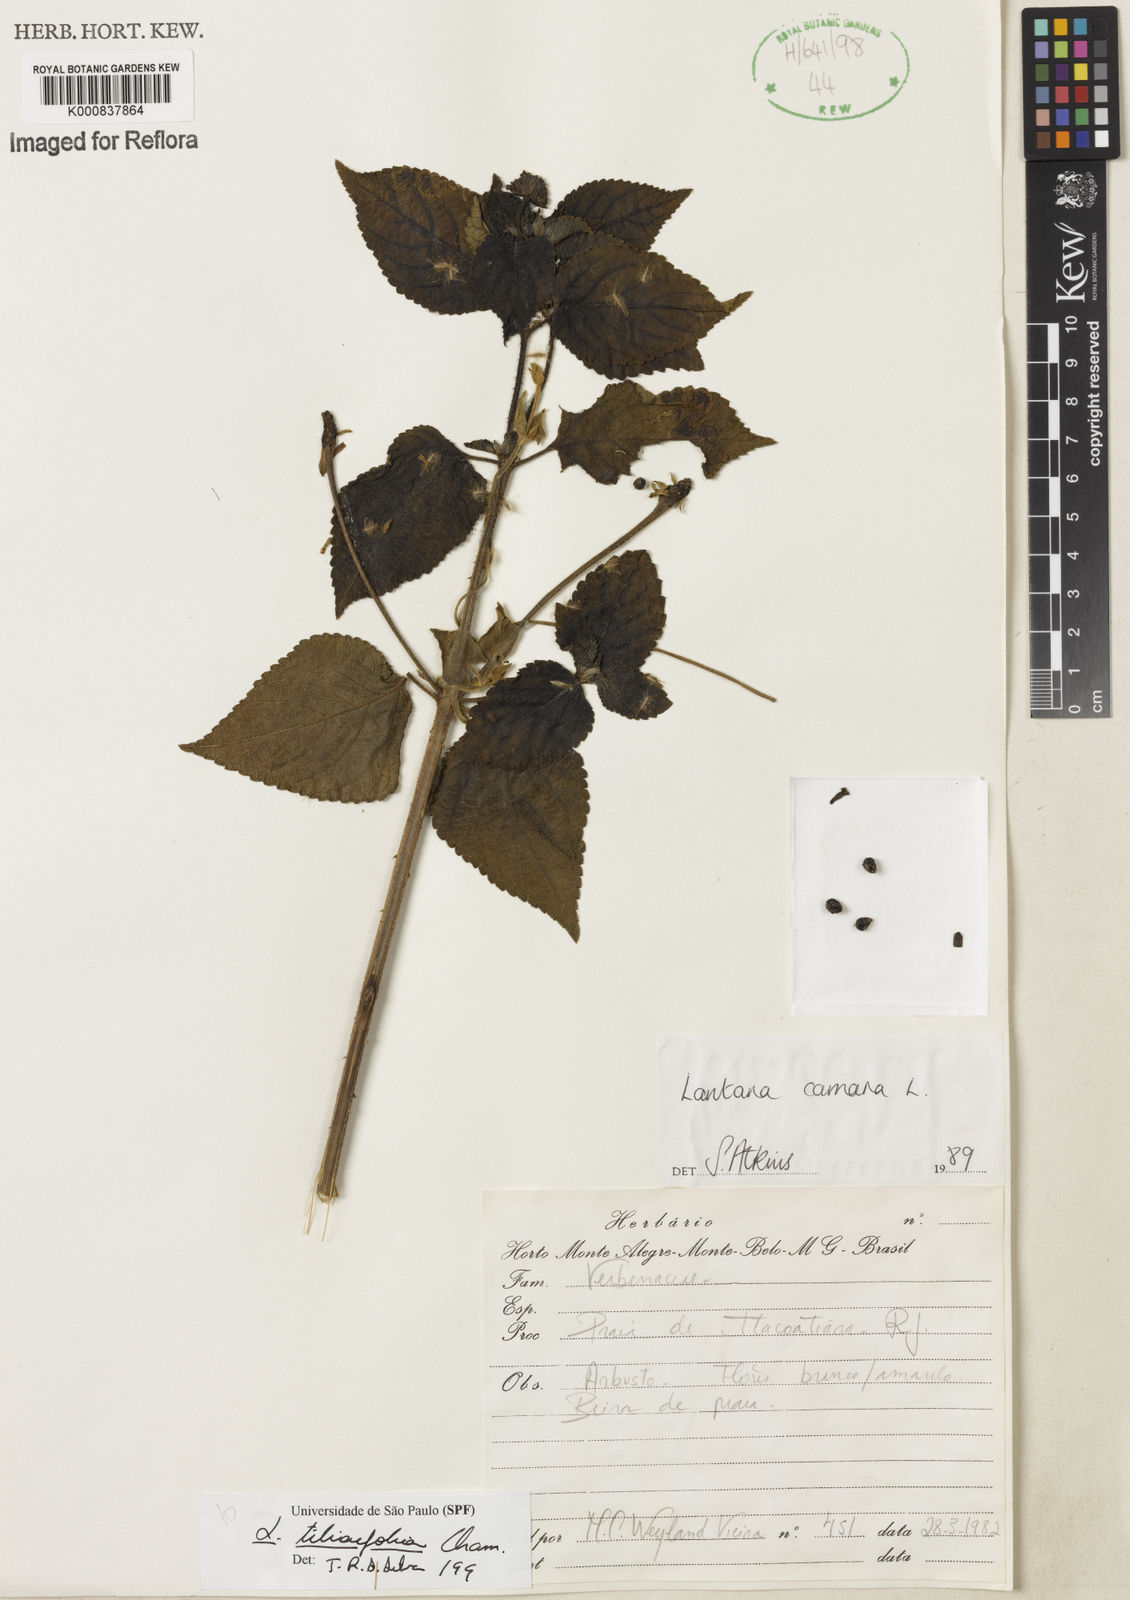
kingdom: Plantae
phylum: Tracheophyta
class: Magnoliopsida
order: Lamiales
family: Verbenaceae
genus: Lantana
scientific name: Lantana
